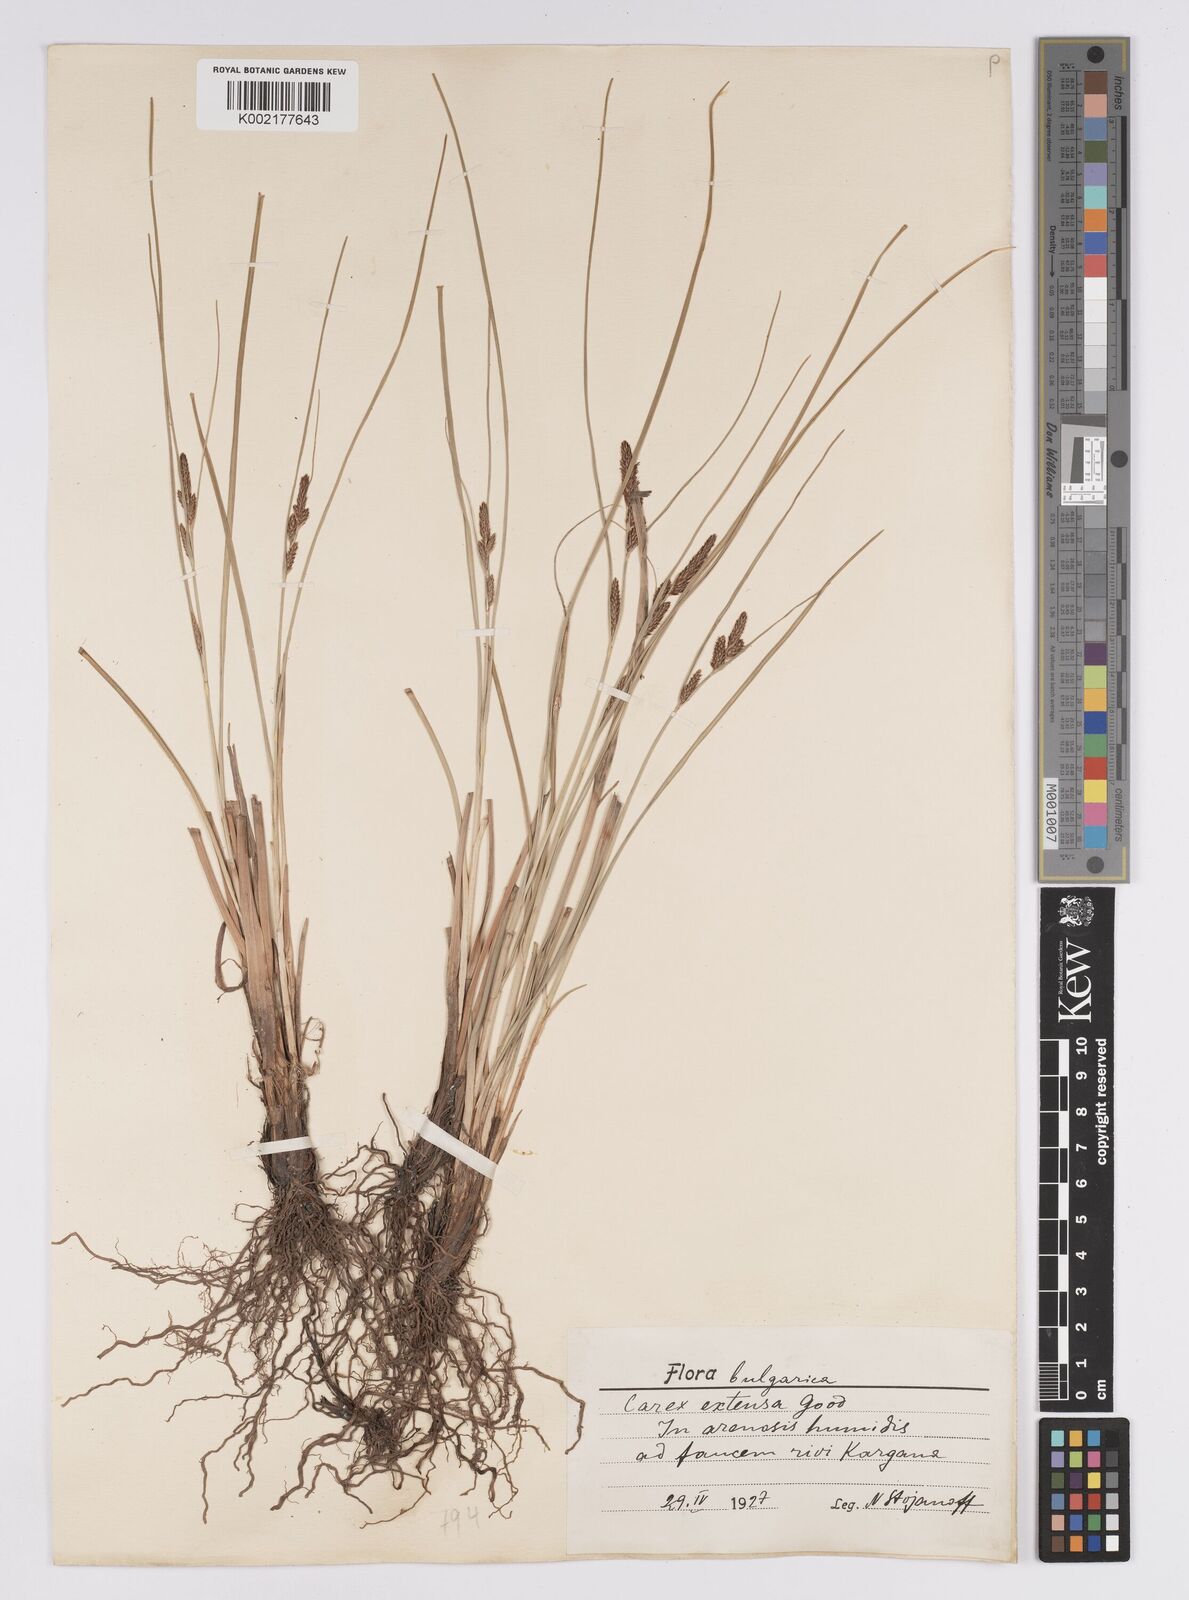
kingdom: Plantae
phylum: Tracheophyta
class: Liliopsida
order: Poales
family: Cyperaceae
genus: Carex
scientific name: Carex extensa
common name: Long-bracted sedge
